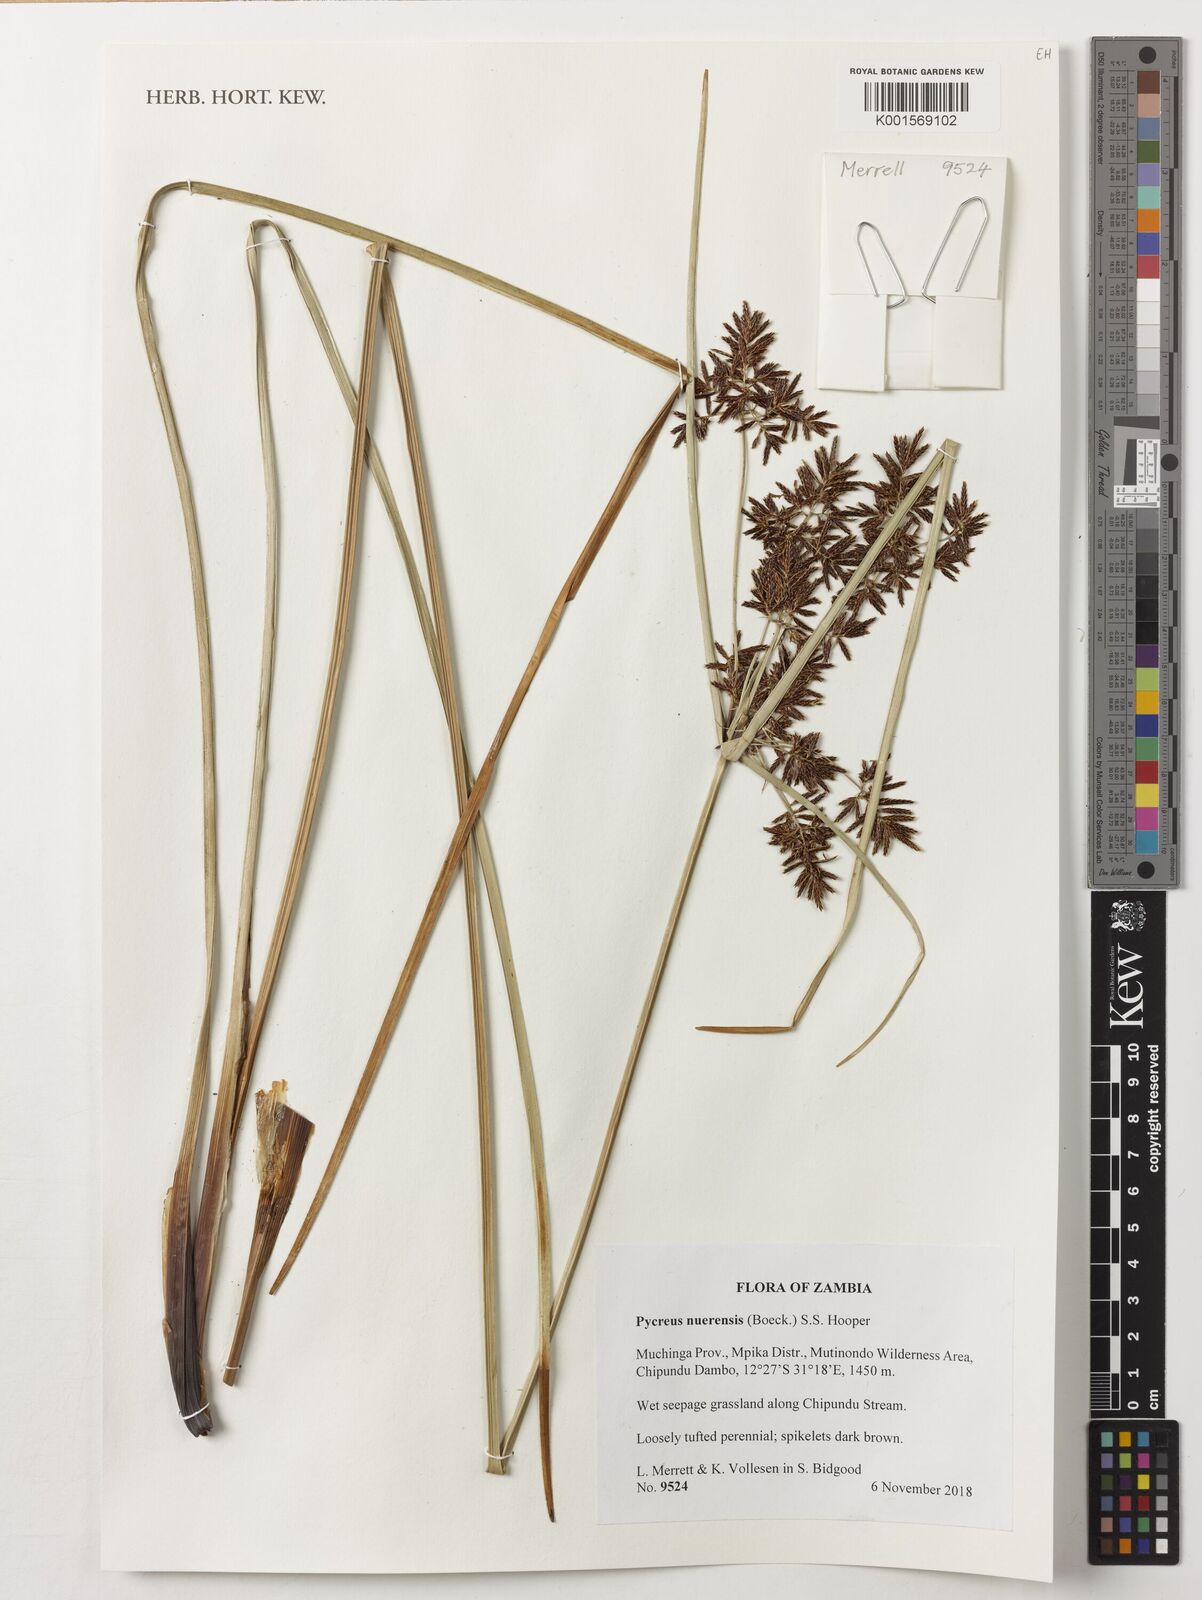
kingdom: Plantae
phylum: Tracheophyta
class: Liliopsida
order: Poales
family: Cyperaceae
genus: Cyperus
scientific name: Cyperus nuerensis
